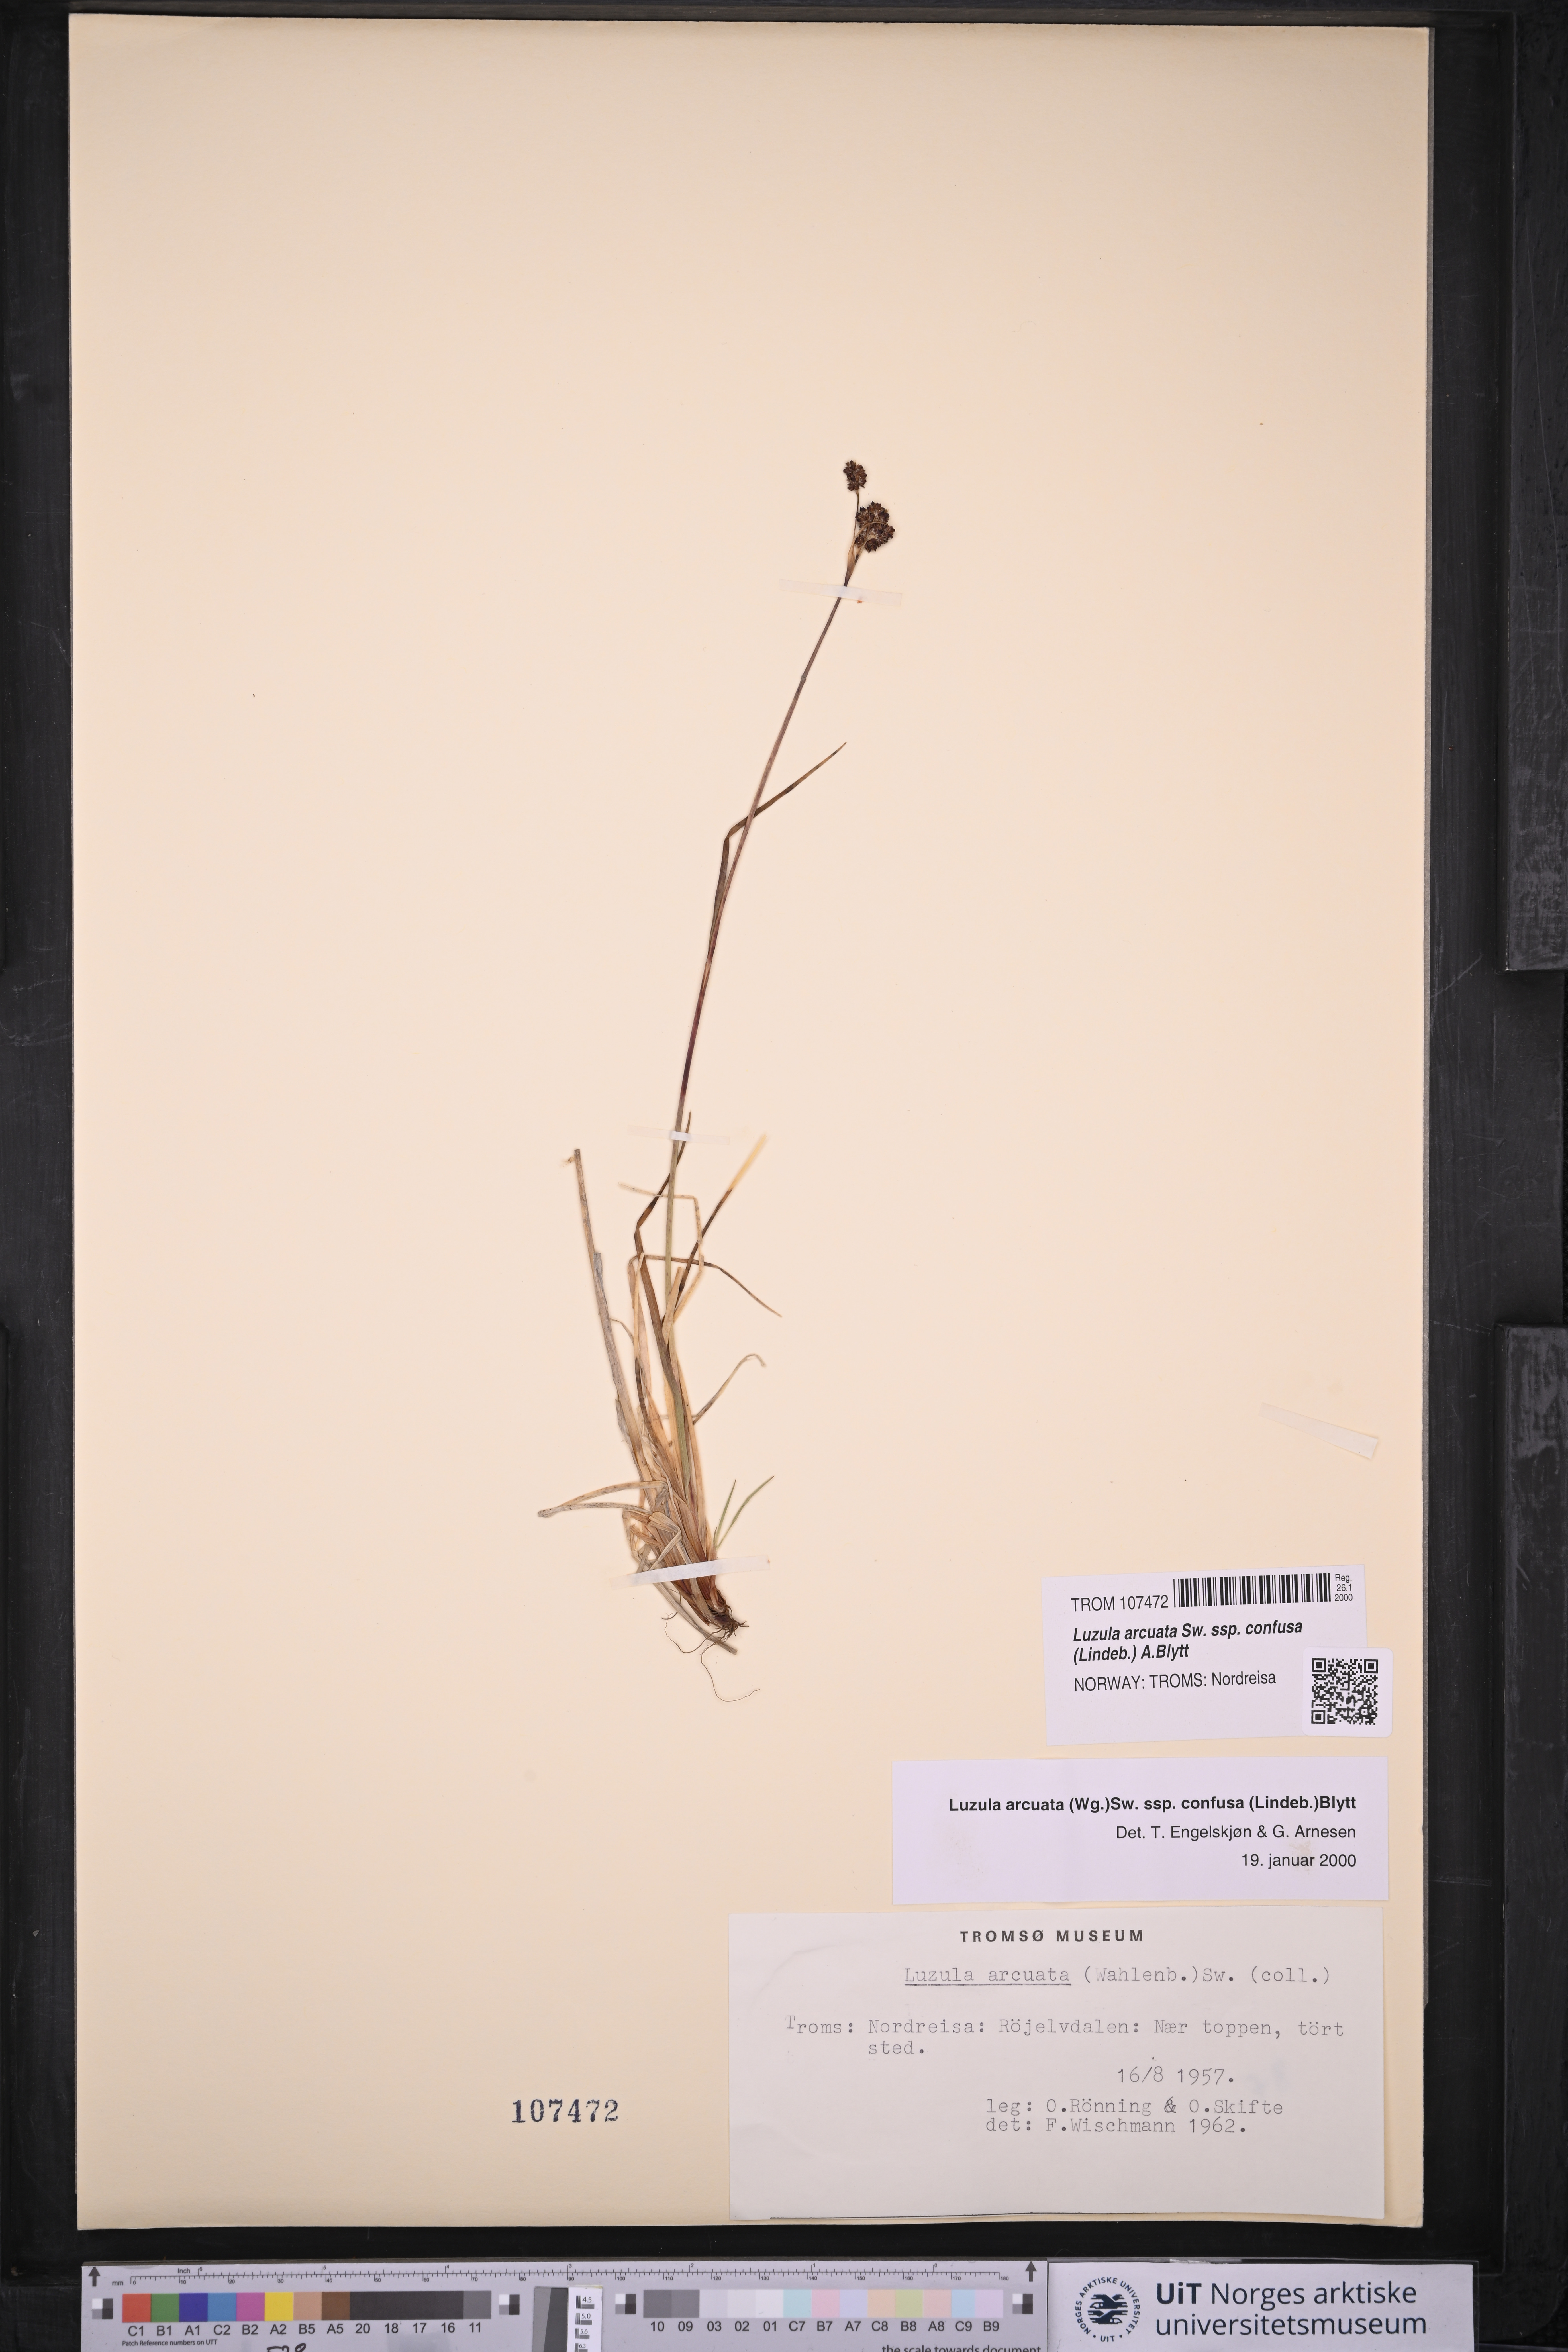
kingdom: Plantae
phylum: Tracheophyta
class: Liliopsida
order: Poales
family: Juncaceae
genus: Luzula
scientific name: Luzula confusa
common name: Northern wood rush
